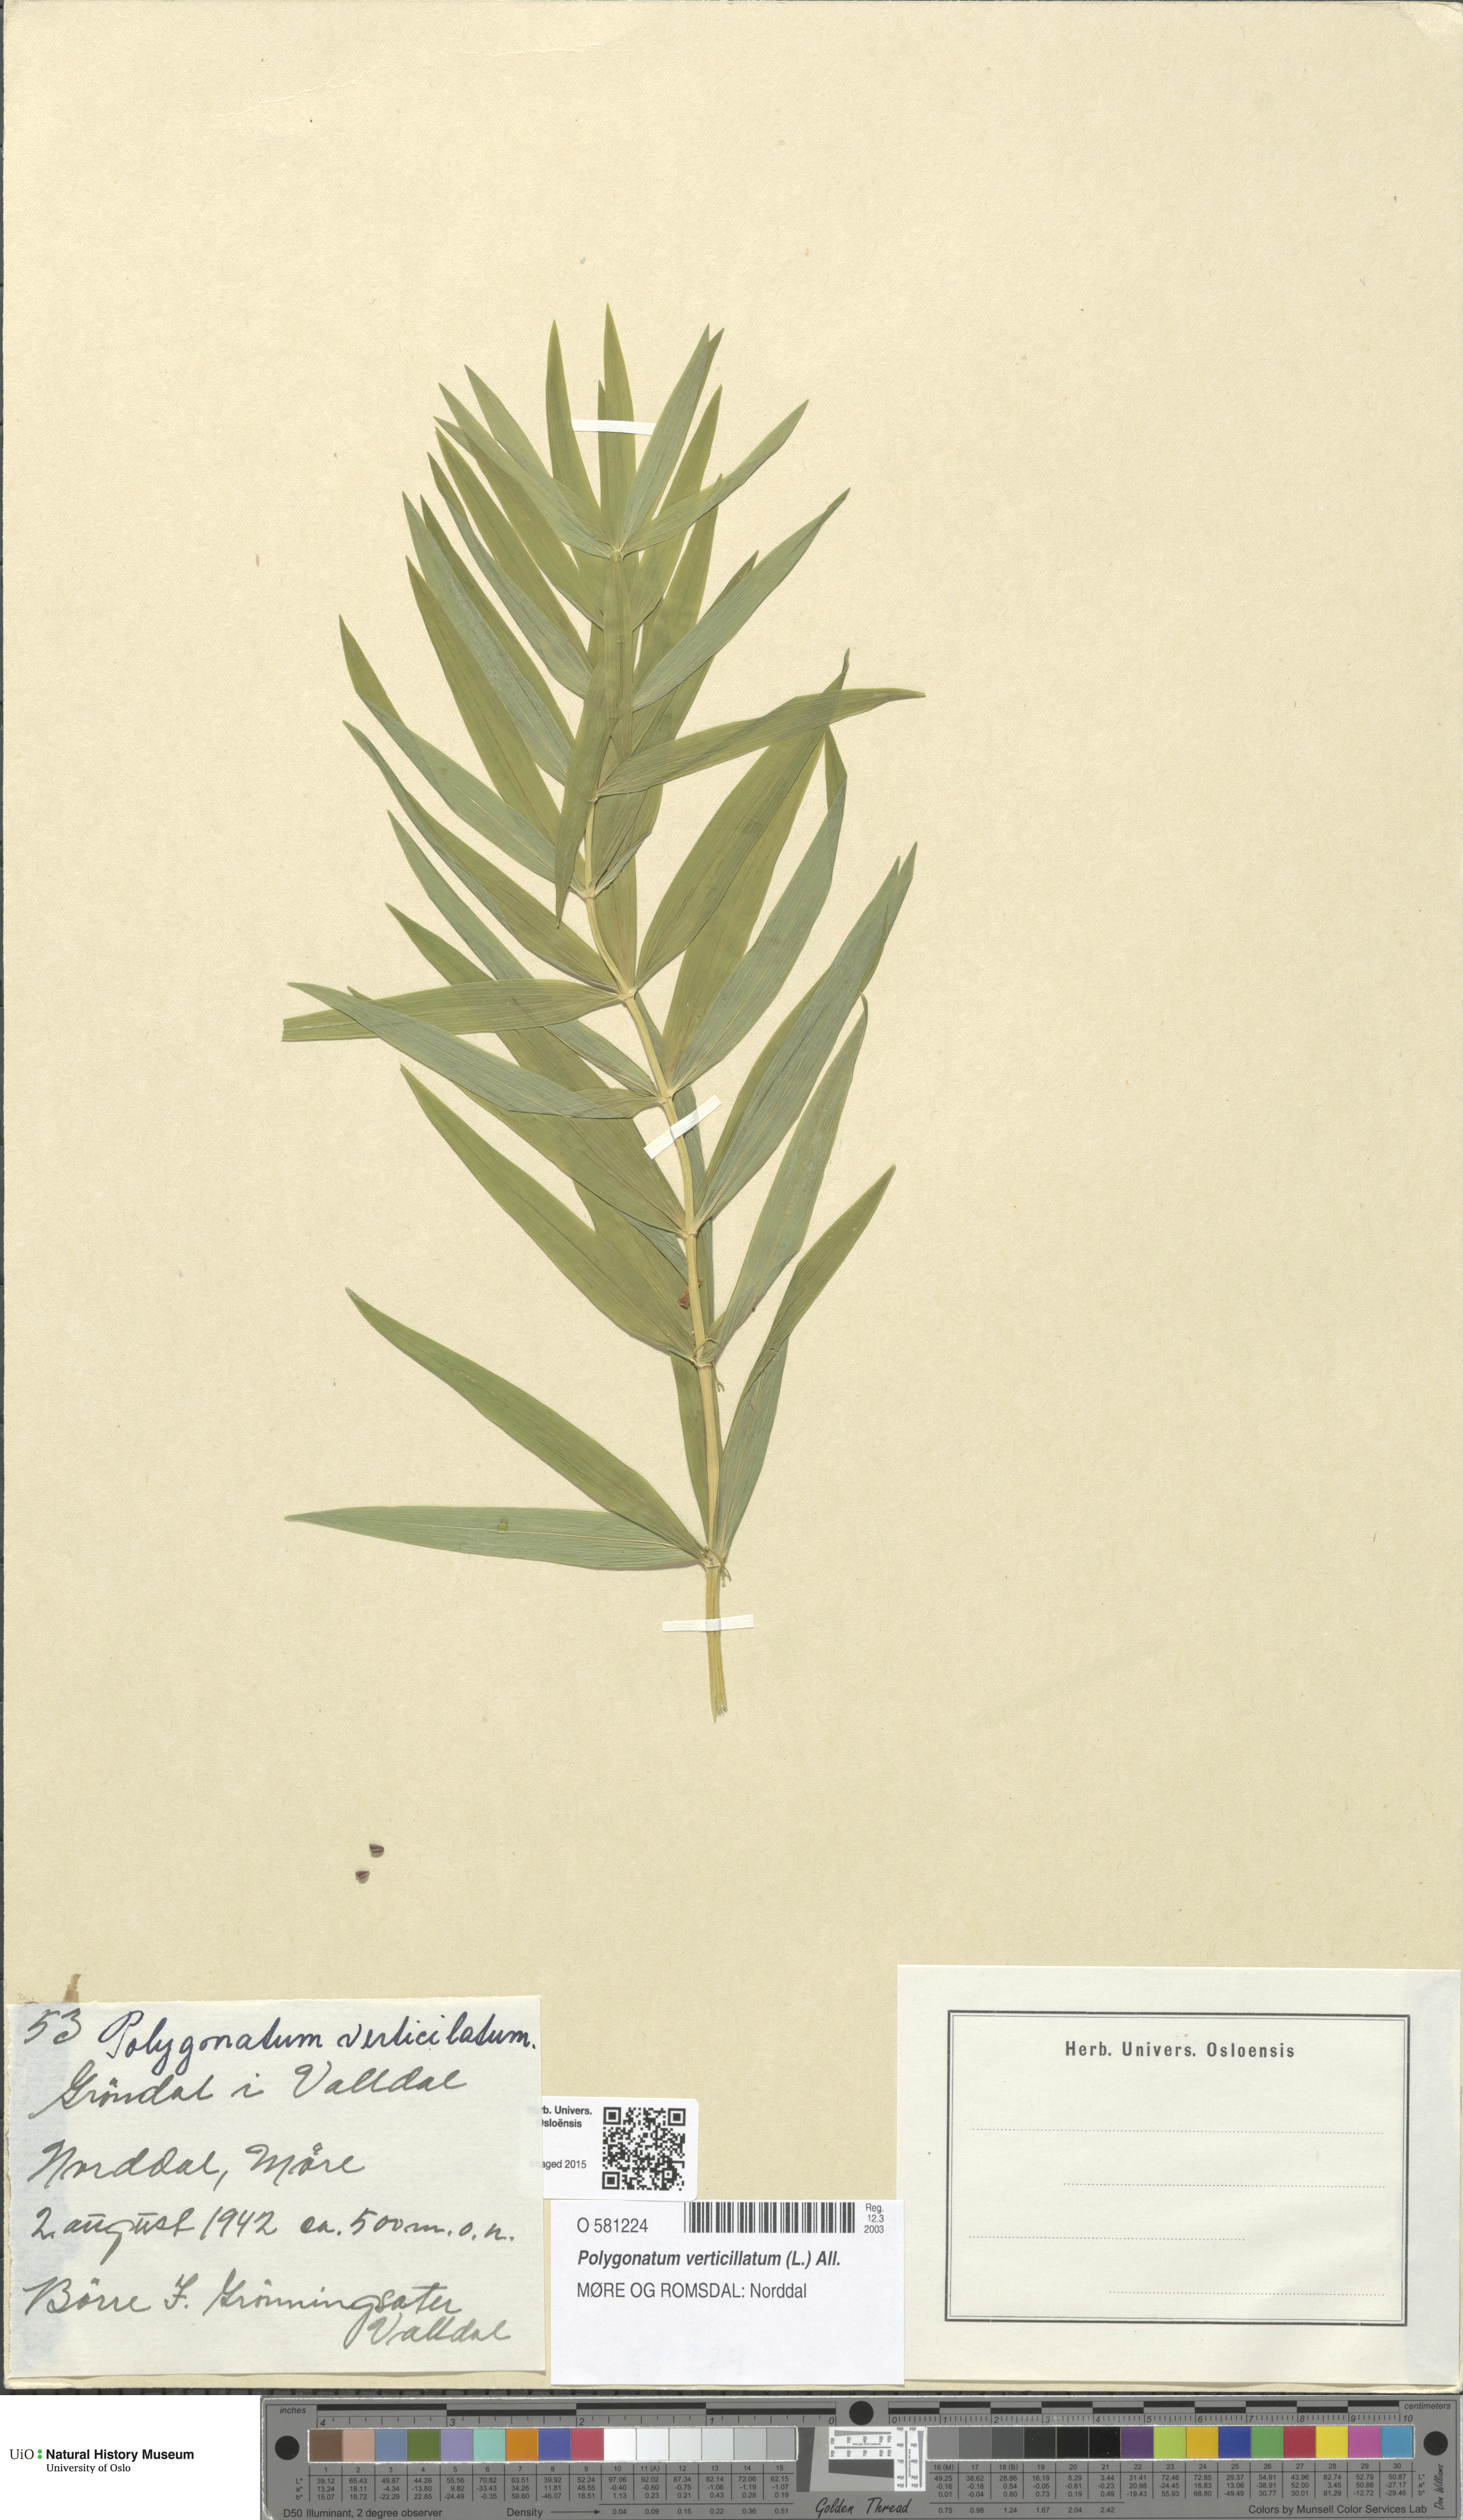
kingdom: Plantae
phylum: Tracheophyta
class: Liliopsida
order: Asparagales
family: Asparagaceae
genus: Polygonatum
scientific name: Polygonatum verticillatum
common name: Whorled solomon's-seal
